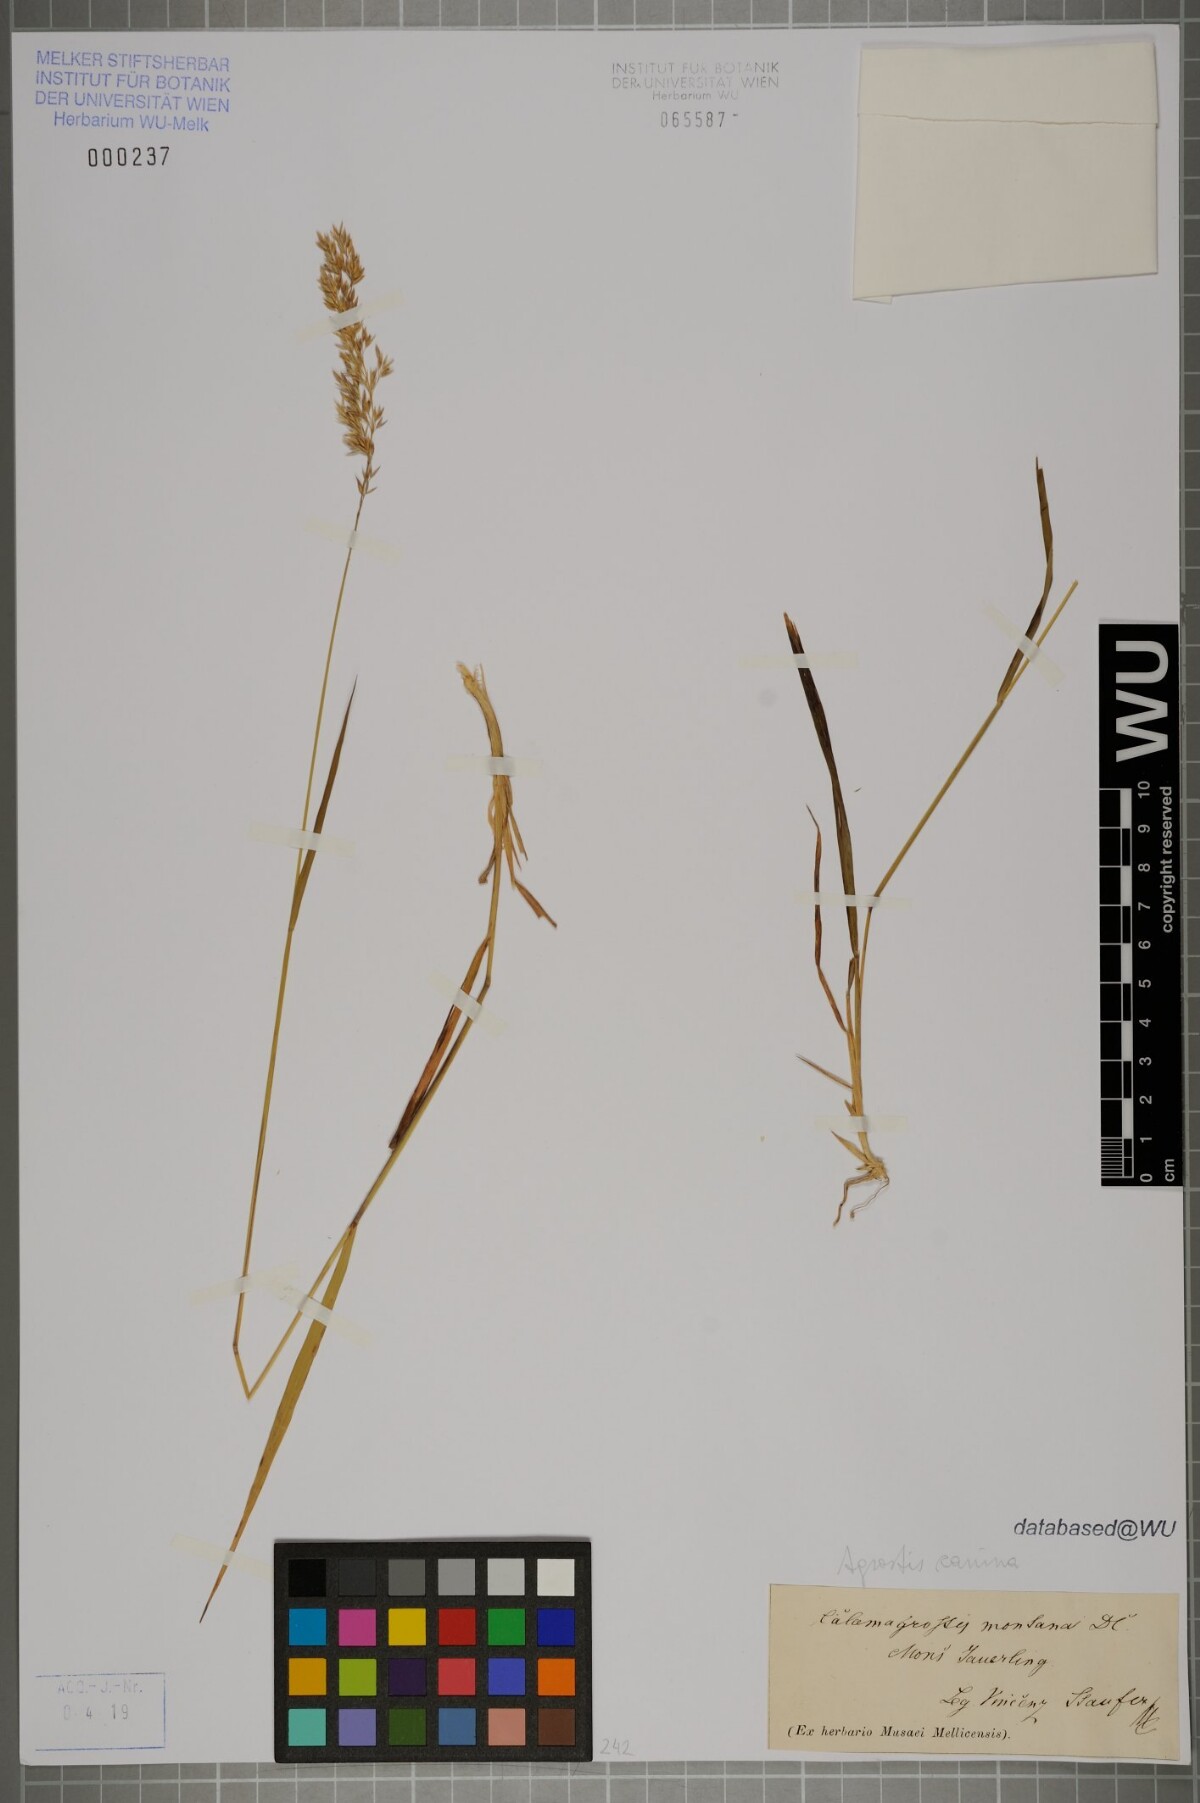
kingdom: Plantae
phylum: Tracheophyta
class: Liliopsida
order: Poales
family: Poaceae
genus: Agrostis
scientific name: Agrostis canina
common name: Velvet bent
